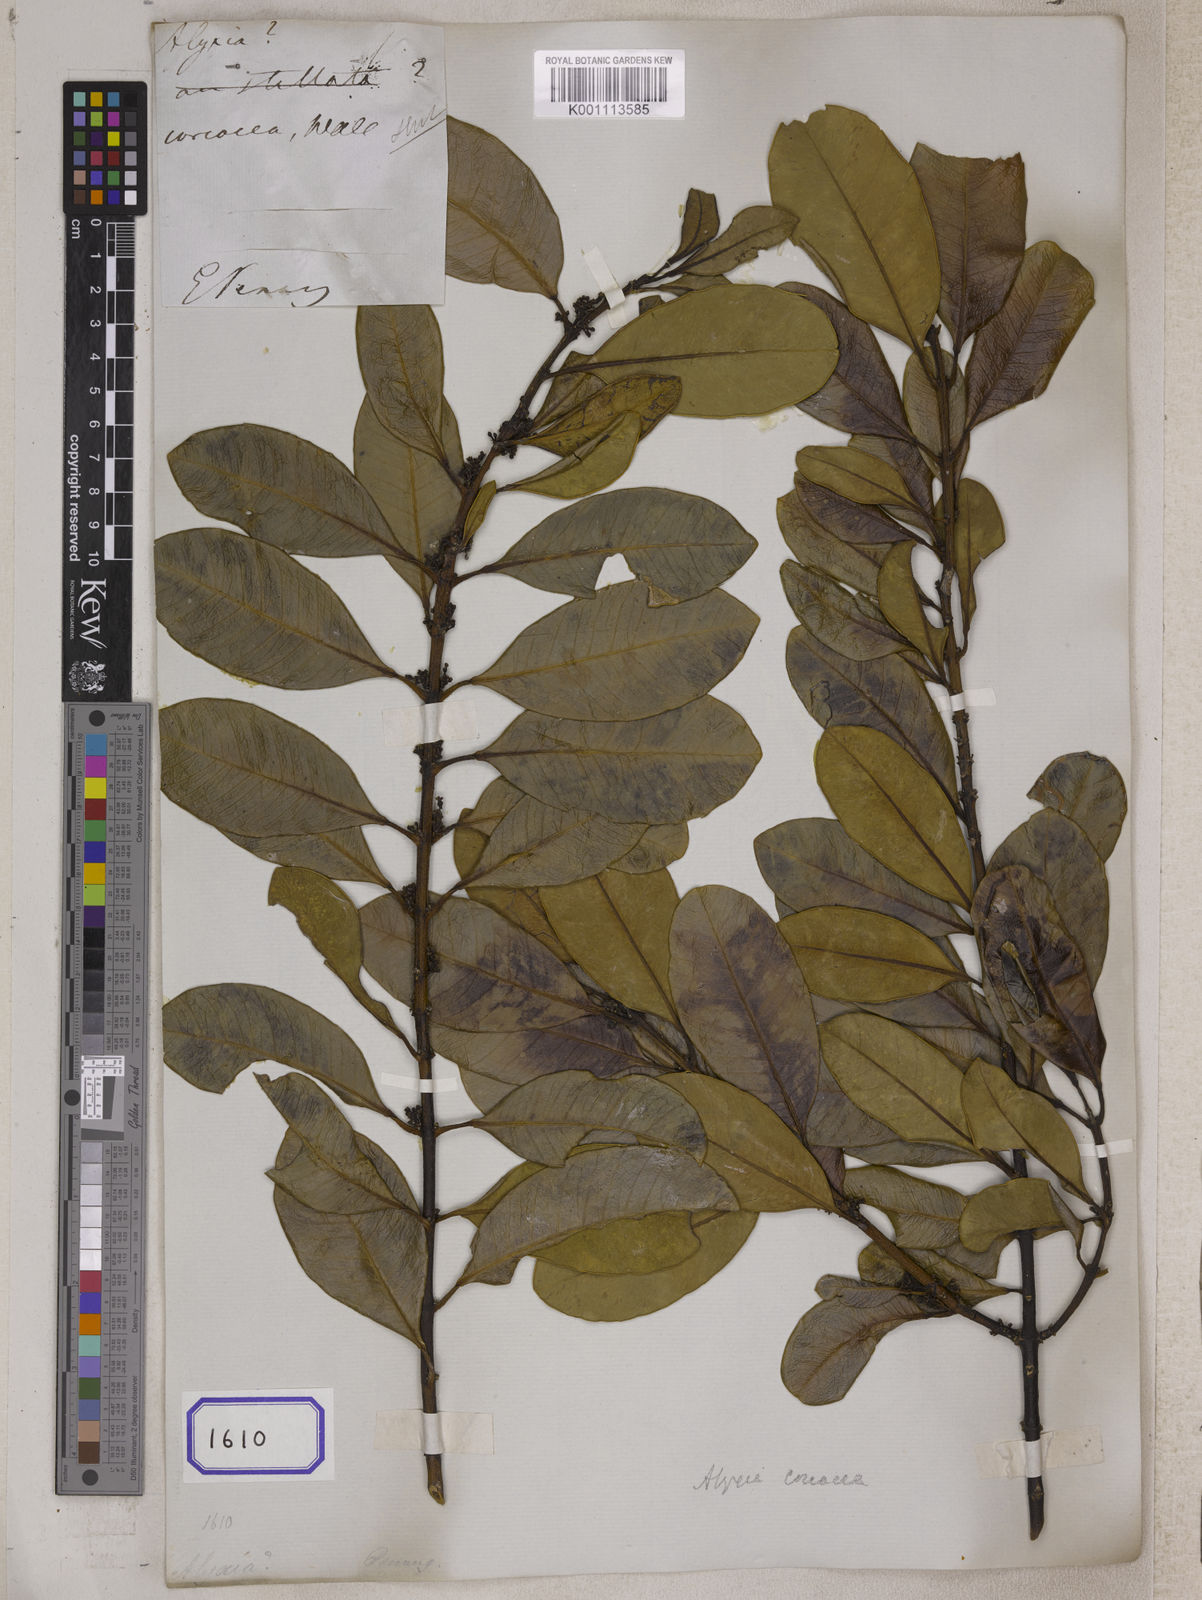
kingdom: Plantae
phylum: Tracheophyta
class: Magnoliopsida
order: Gentianales
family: Apocynaceae
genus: Hunteria
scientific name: Hunteria
